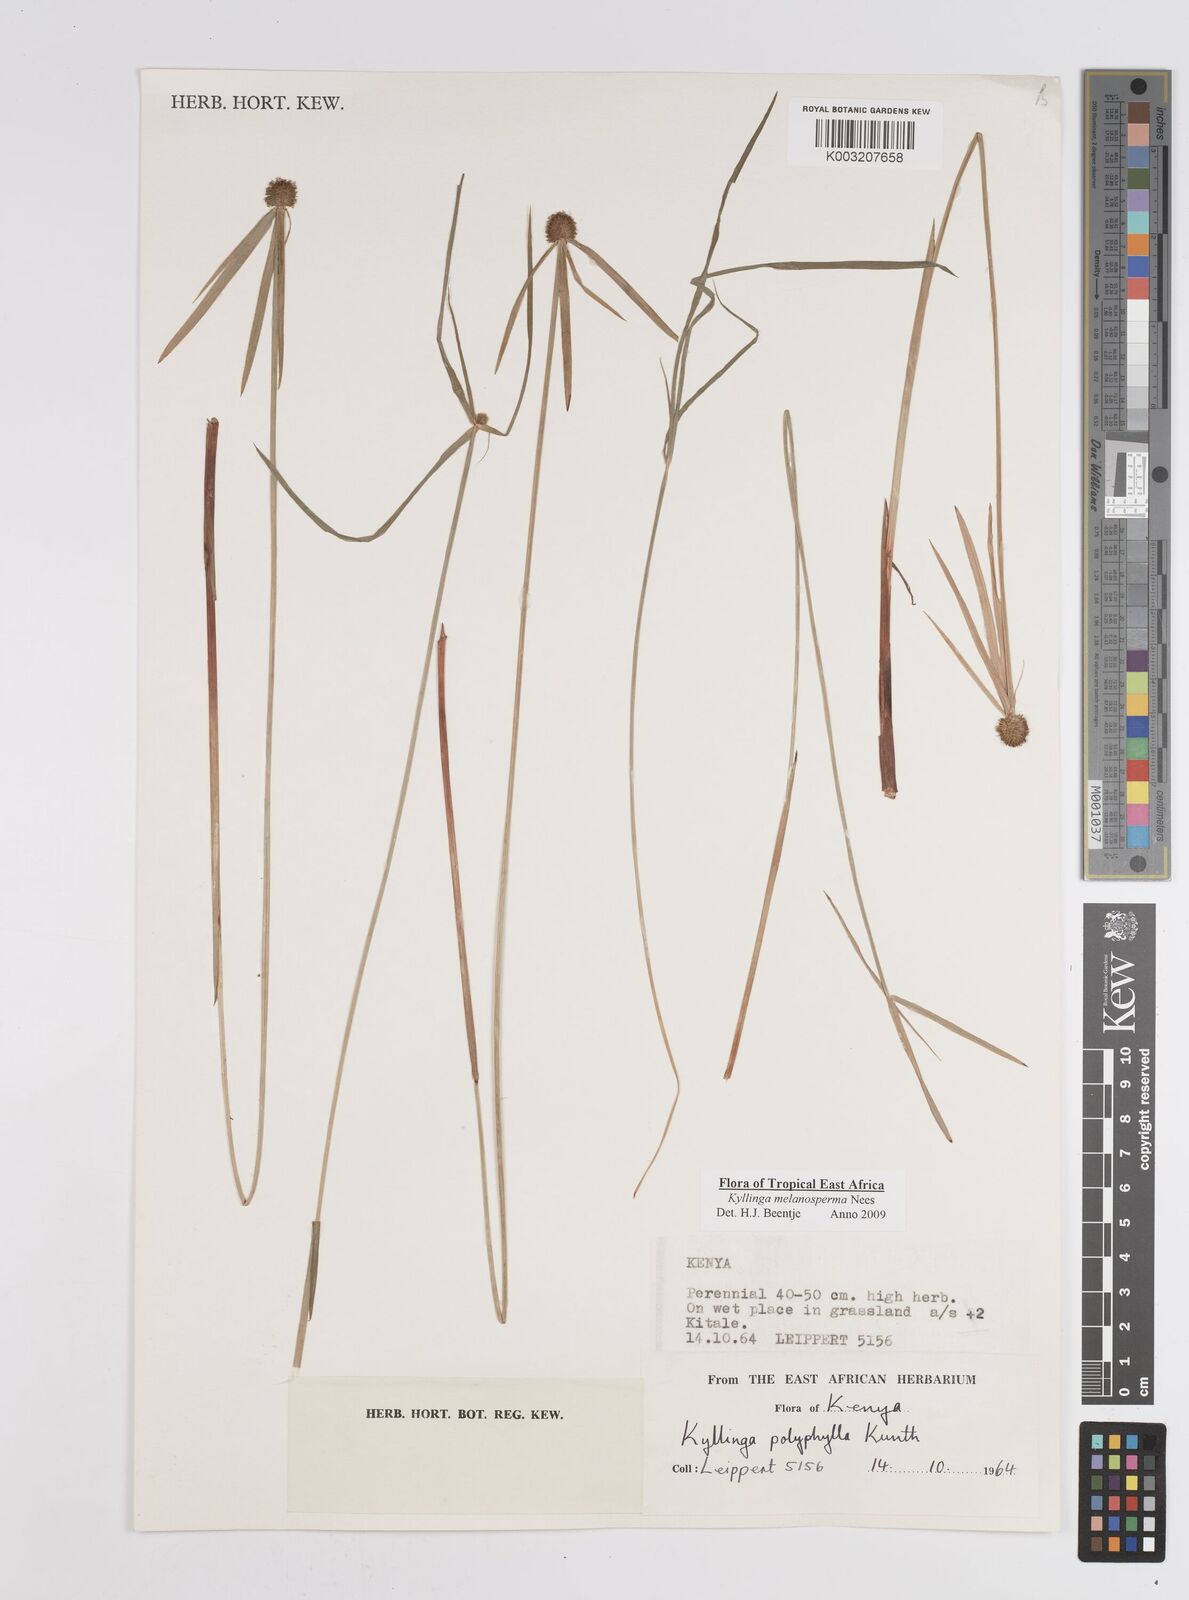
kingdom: Plantae
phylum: Tracheophyta
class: Liliopsida
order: Poales
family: Cyperaceae
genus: Cyperus
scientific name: Cyperus
